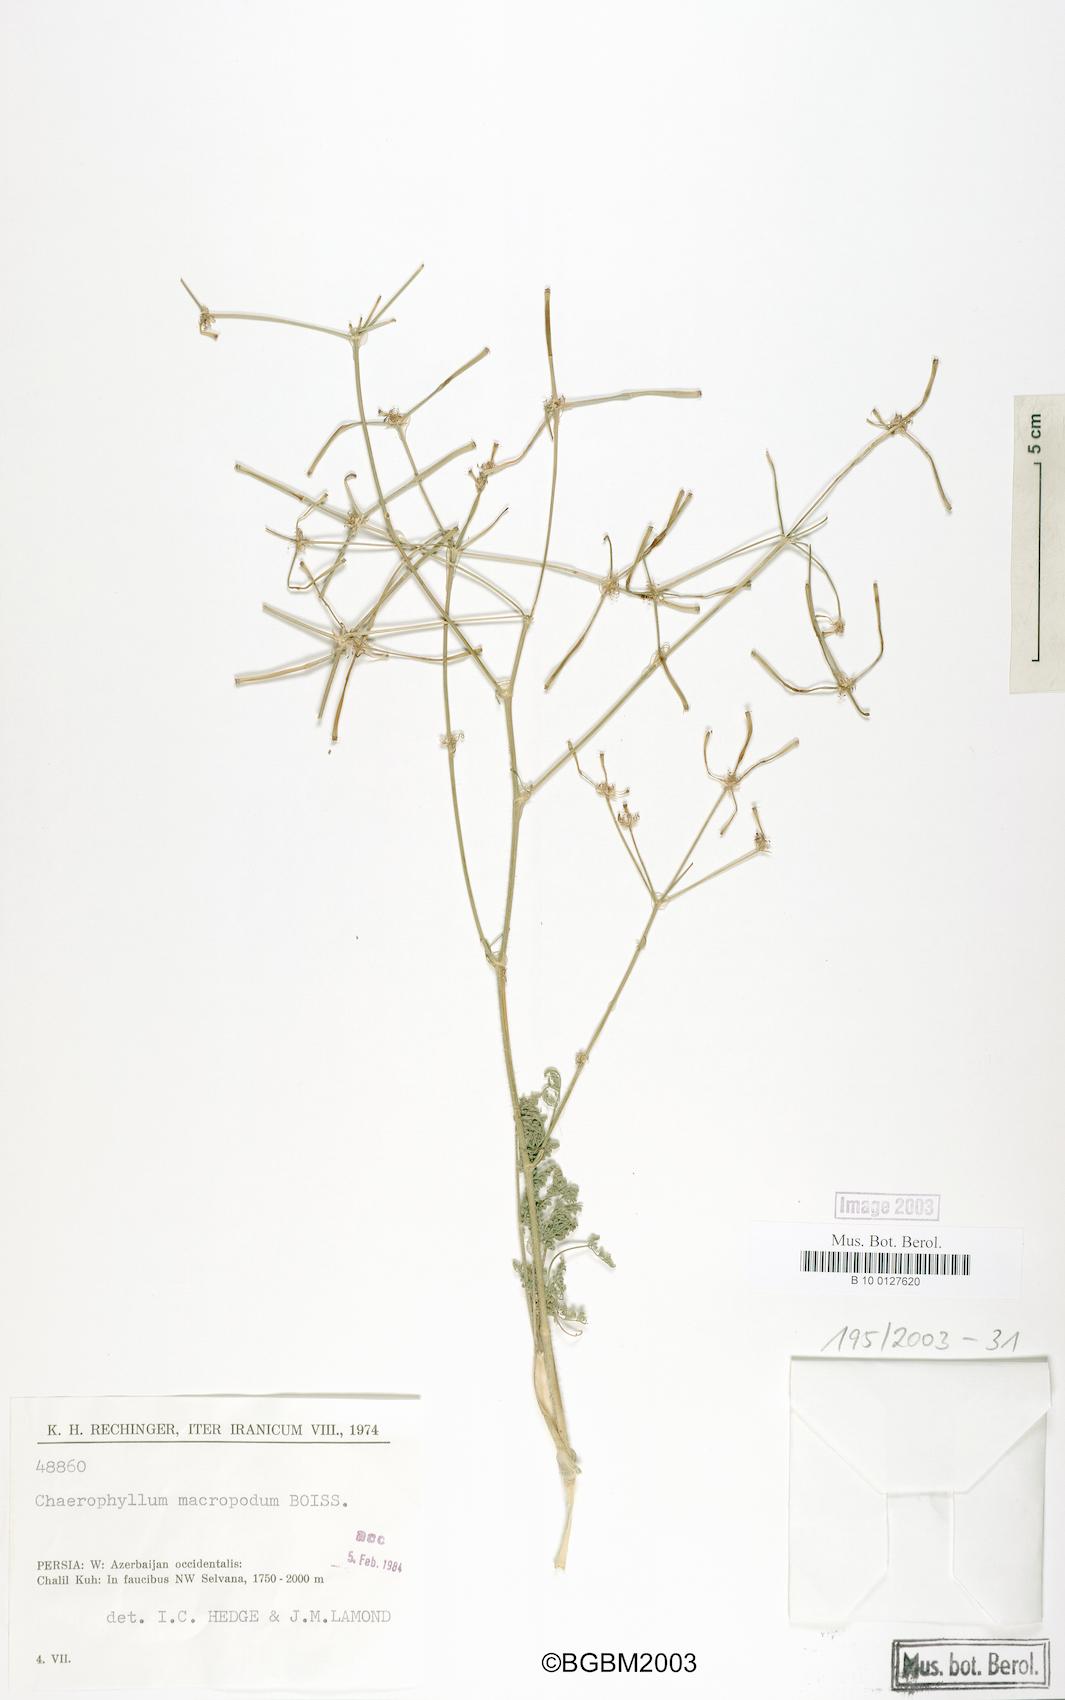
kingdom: Plantae
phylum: Tracheophyta
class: Magnoliopsida
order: Apiales
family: Apiaceae
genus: Chaerophyllum
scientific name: Chaerophyllum macropodum
